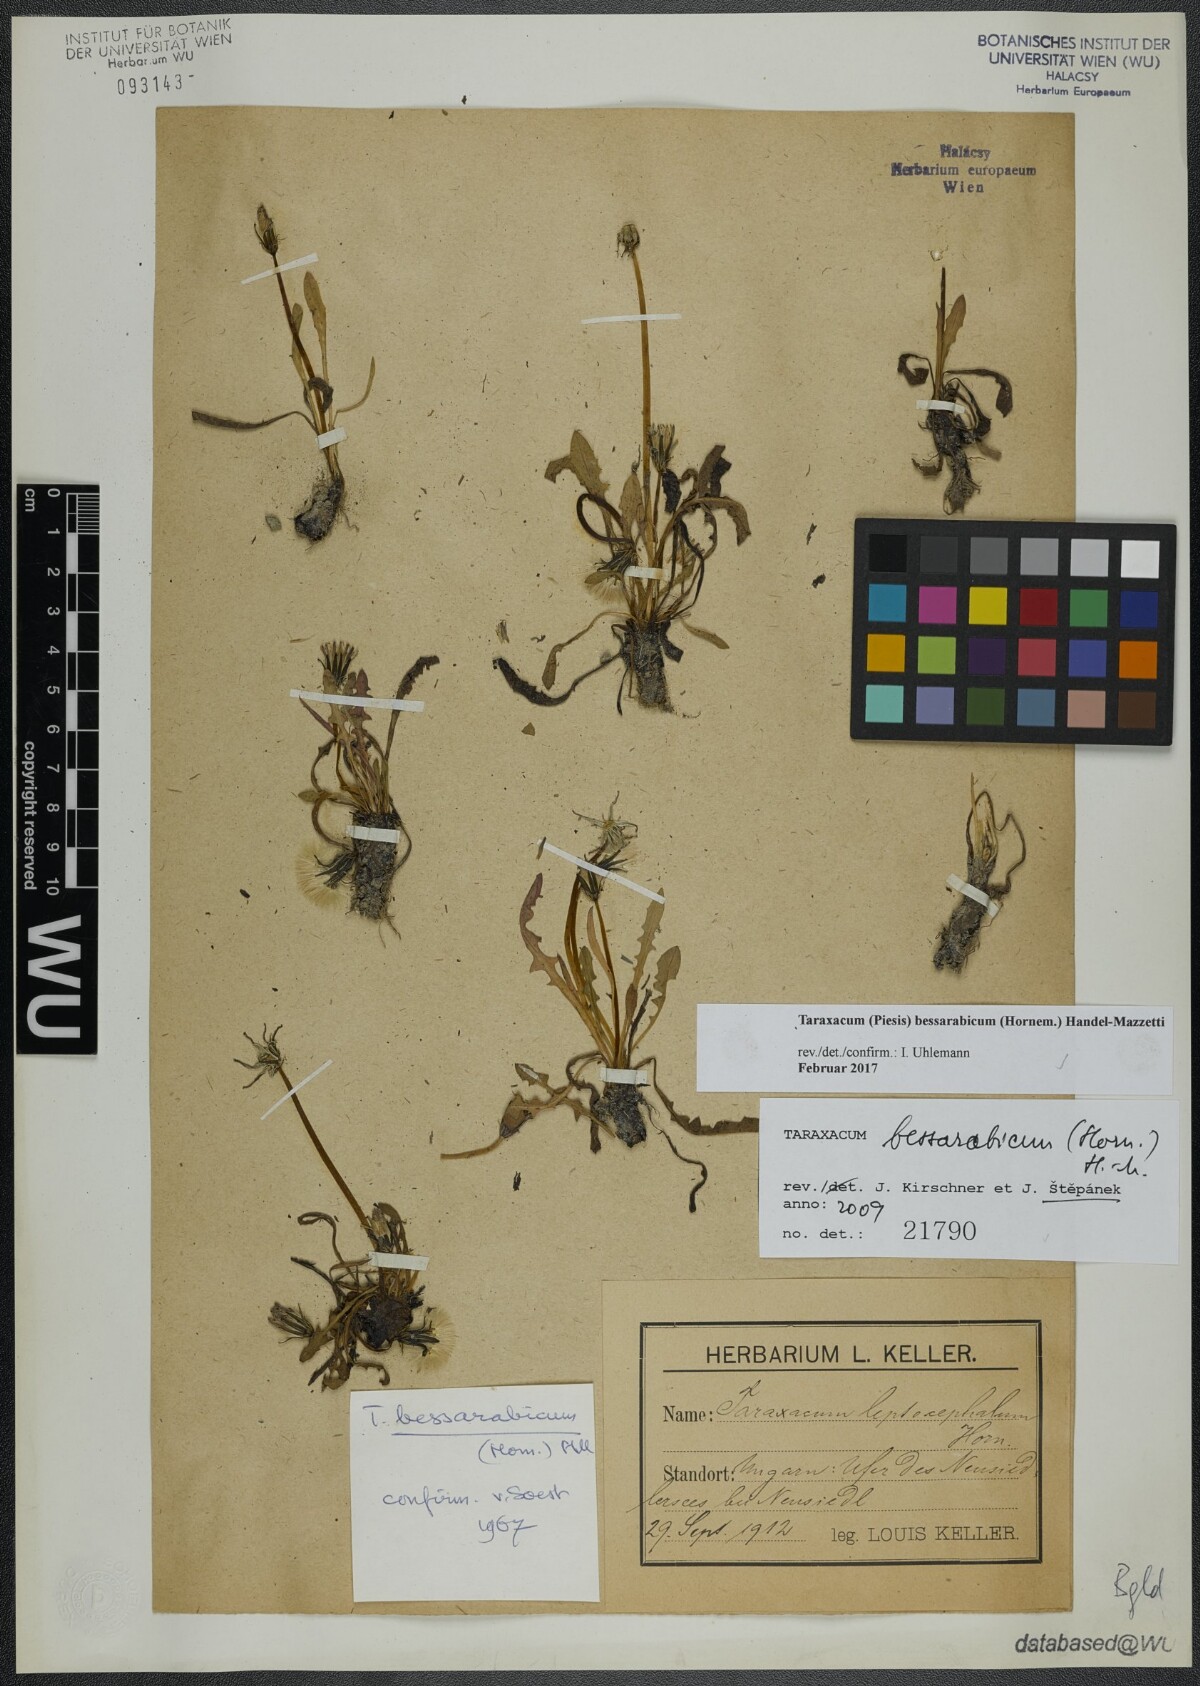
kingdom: Plantae
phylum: Tracheophyta
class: Magnoliopsida
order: Asterales
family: Asteraceae
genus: Taraxacum
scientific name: Taraxacum bessarabicum
